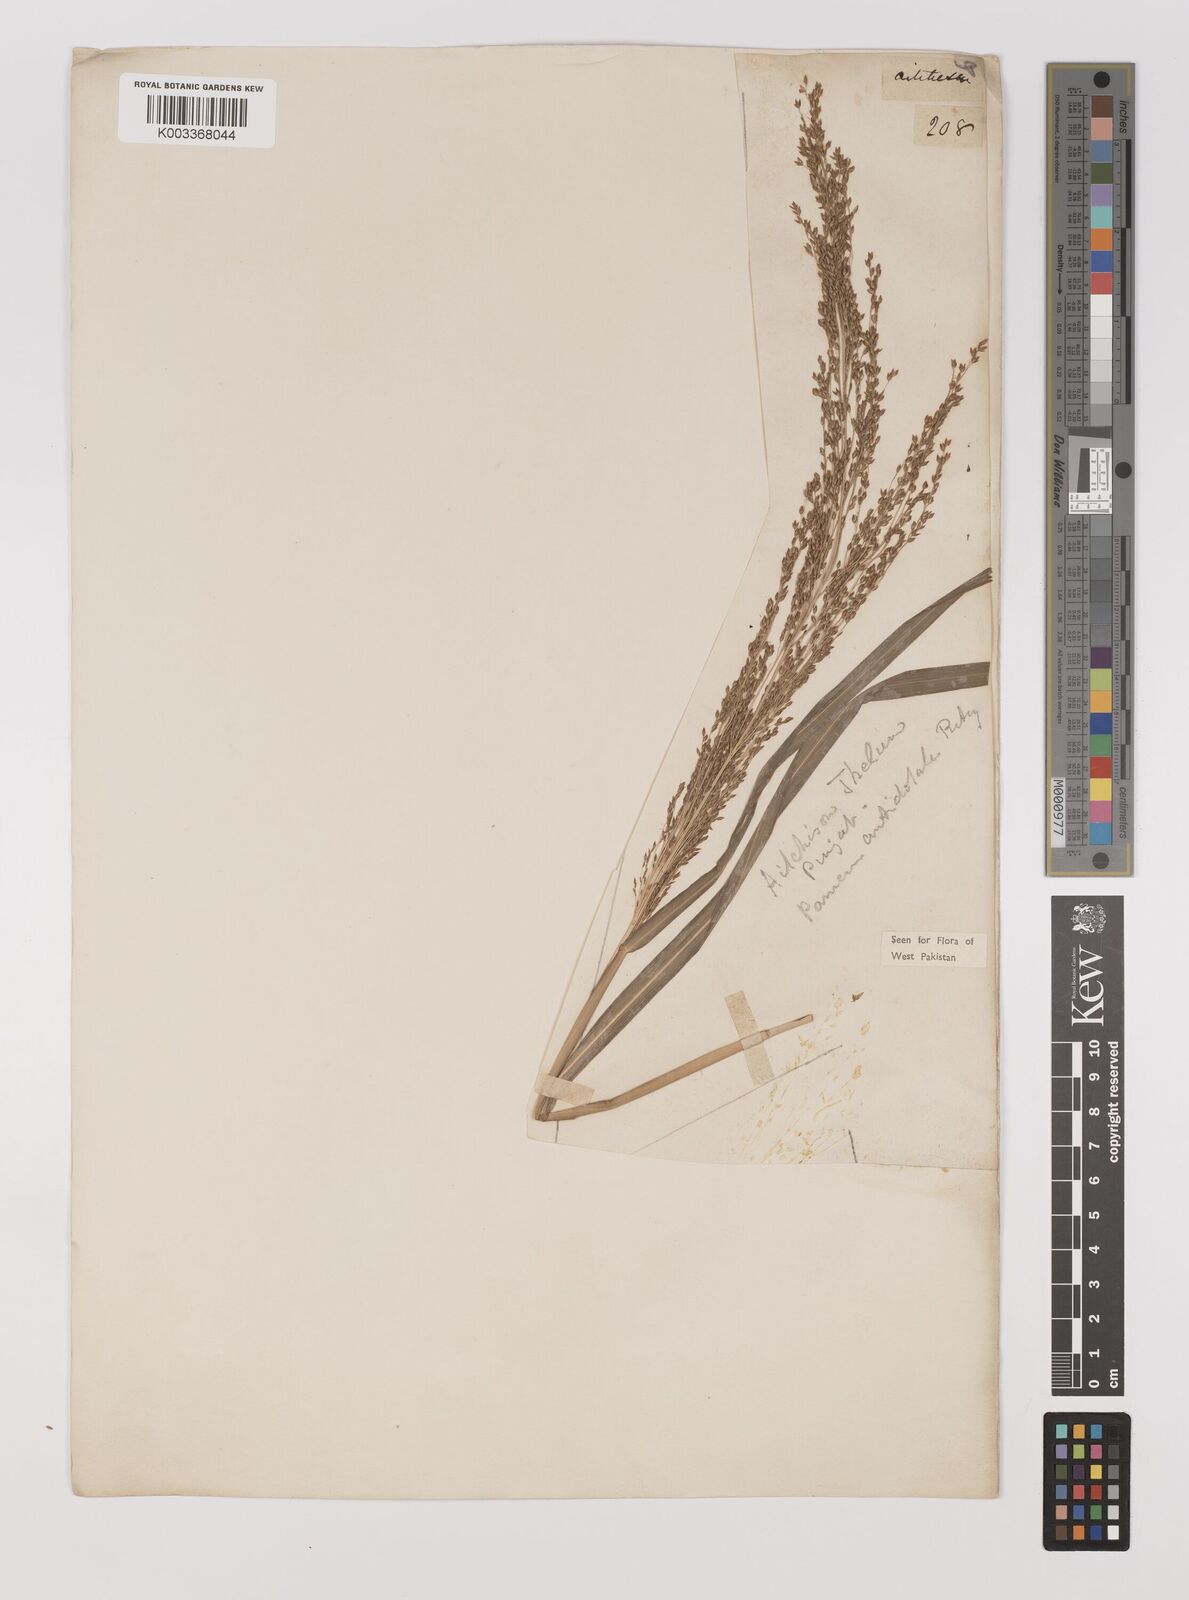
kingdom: Plantae
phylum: Tracheophyta
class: Liliopsida
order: Poales
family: Poaceae
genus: Panicum
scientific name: Panicum antidotale
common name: Blue panicum
